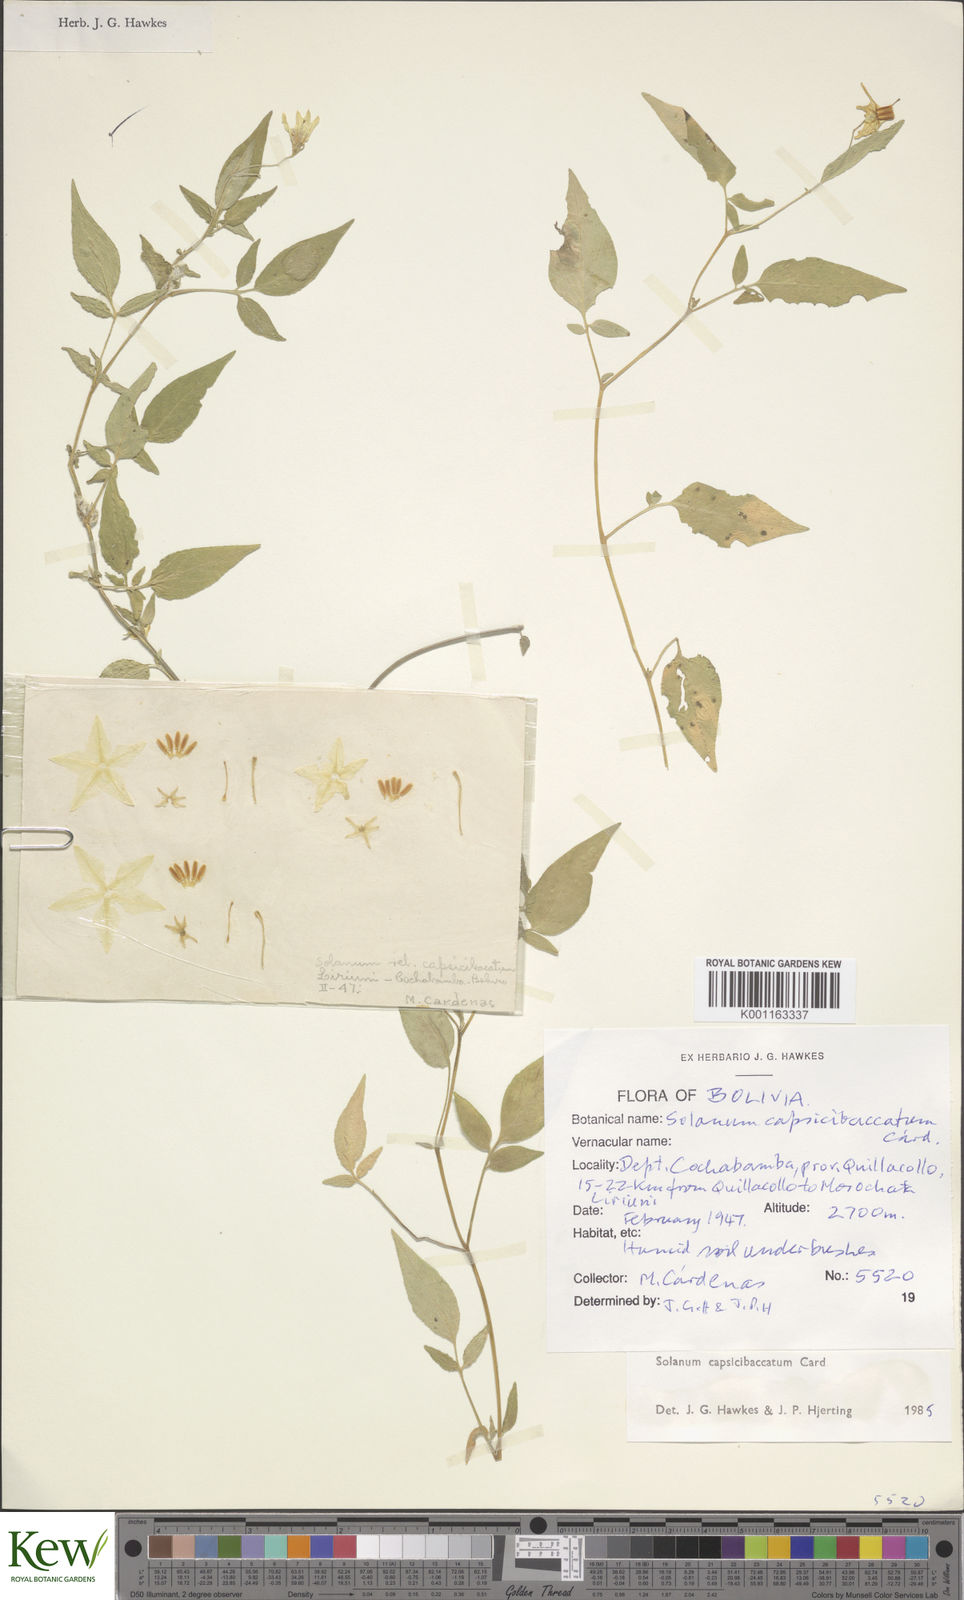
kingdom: Plantae
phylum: Tracheophyta
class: Magnoliopsida
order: Solanales
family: Solanaceae
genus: Solanum
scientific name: Solanum stipuloideum
